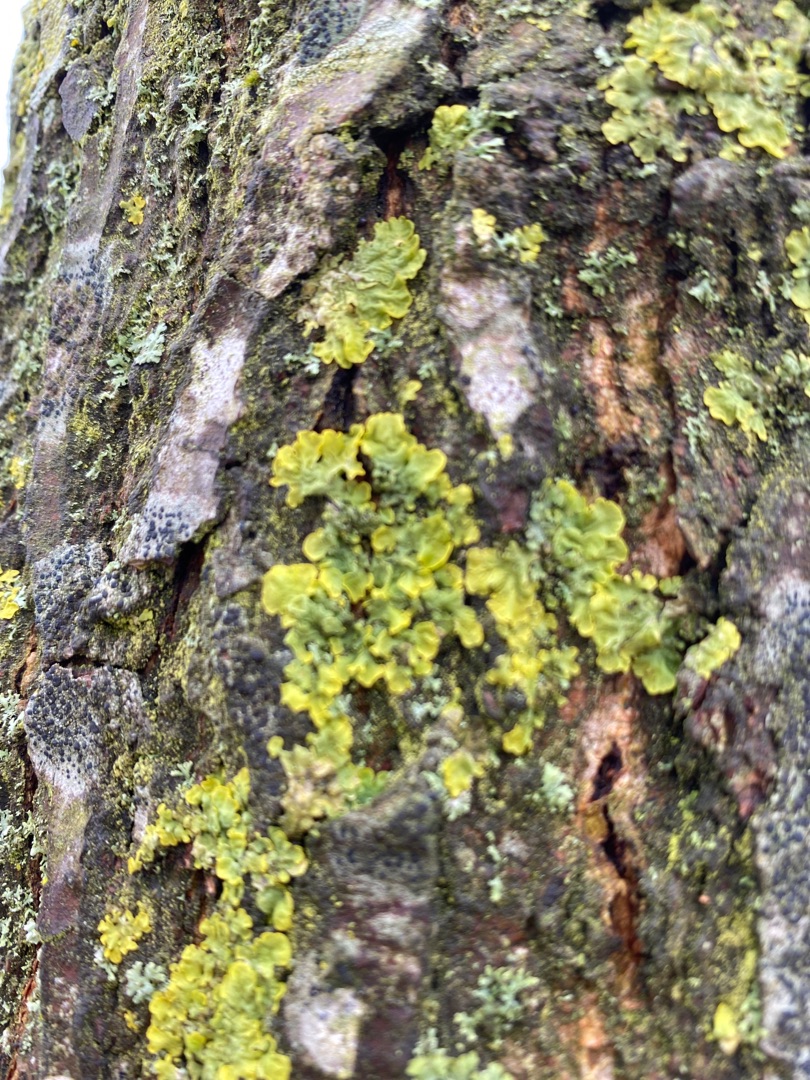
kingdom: Fungi
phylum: Ascomycota
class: Lecanoromycetes
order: Teloschistales
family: Teloschistaceae
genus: Xanthoria
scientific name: Xanthoria parietina
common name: Almindelig væggelav
